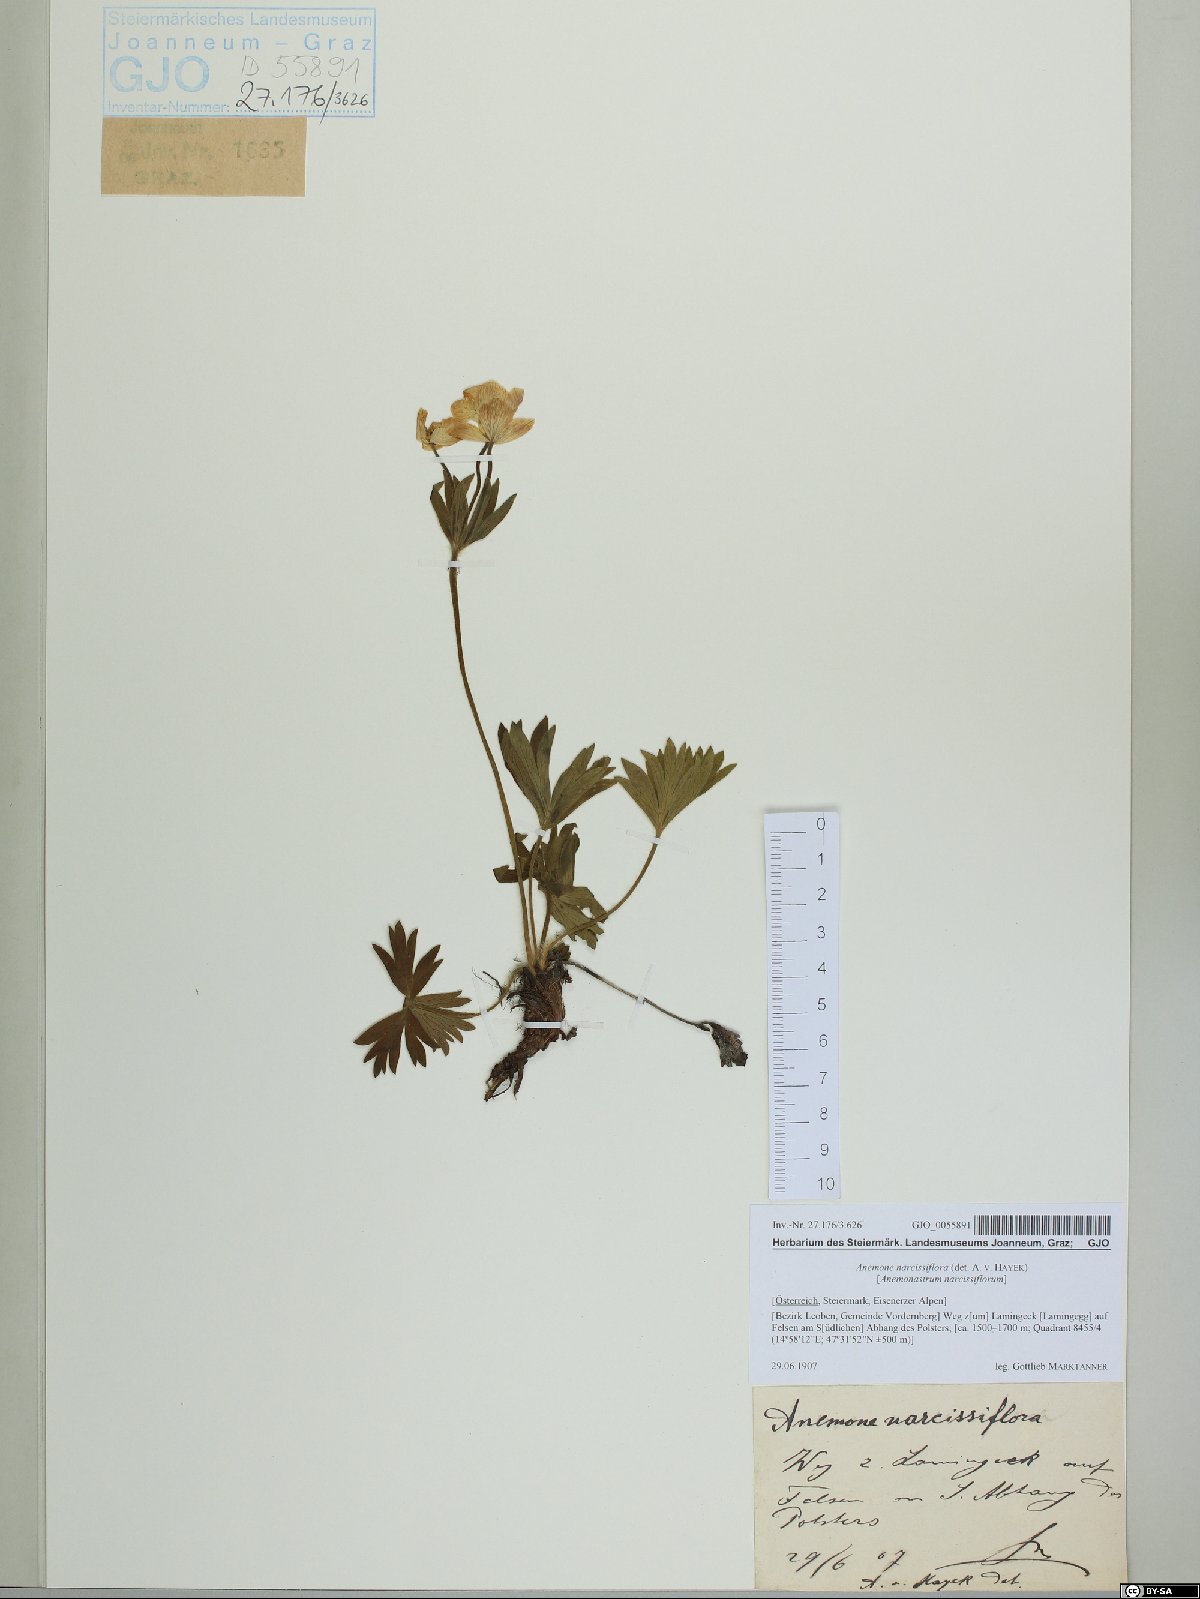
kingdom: Plantae
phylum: Tracheophyta
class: Magnoliopsida
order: Ranunculales
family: Ranunculaceae
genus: Anemonastrum
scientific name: Anemonastrum narcissiflorum
